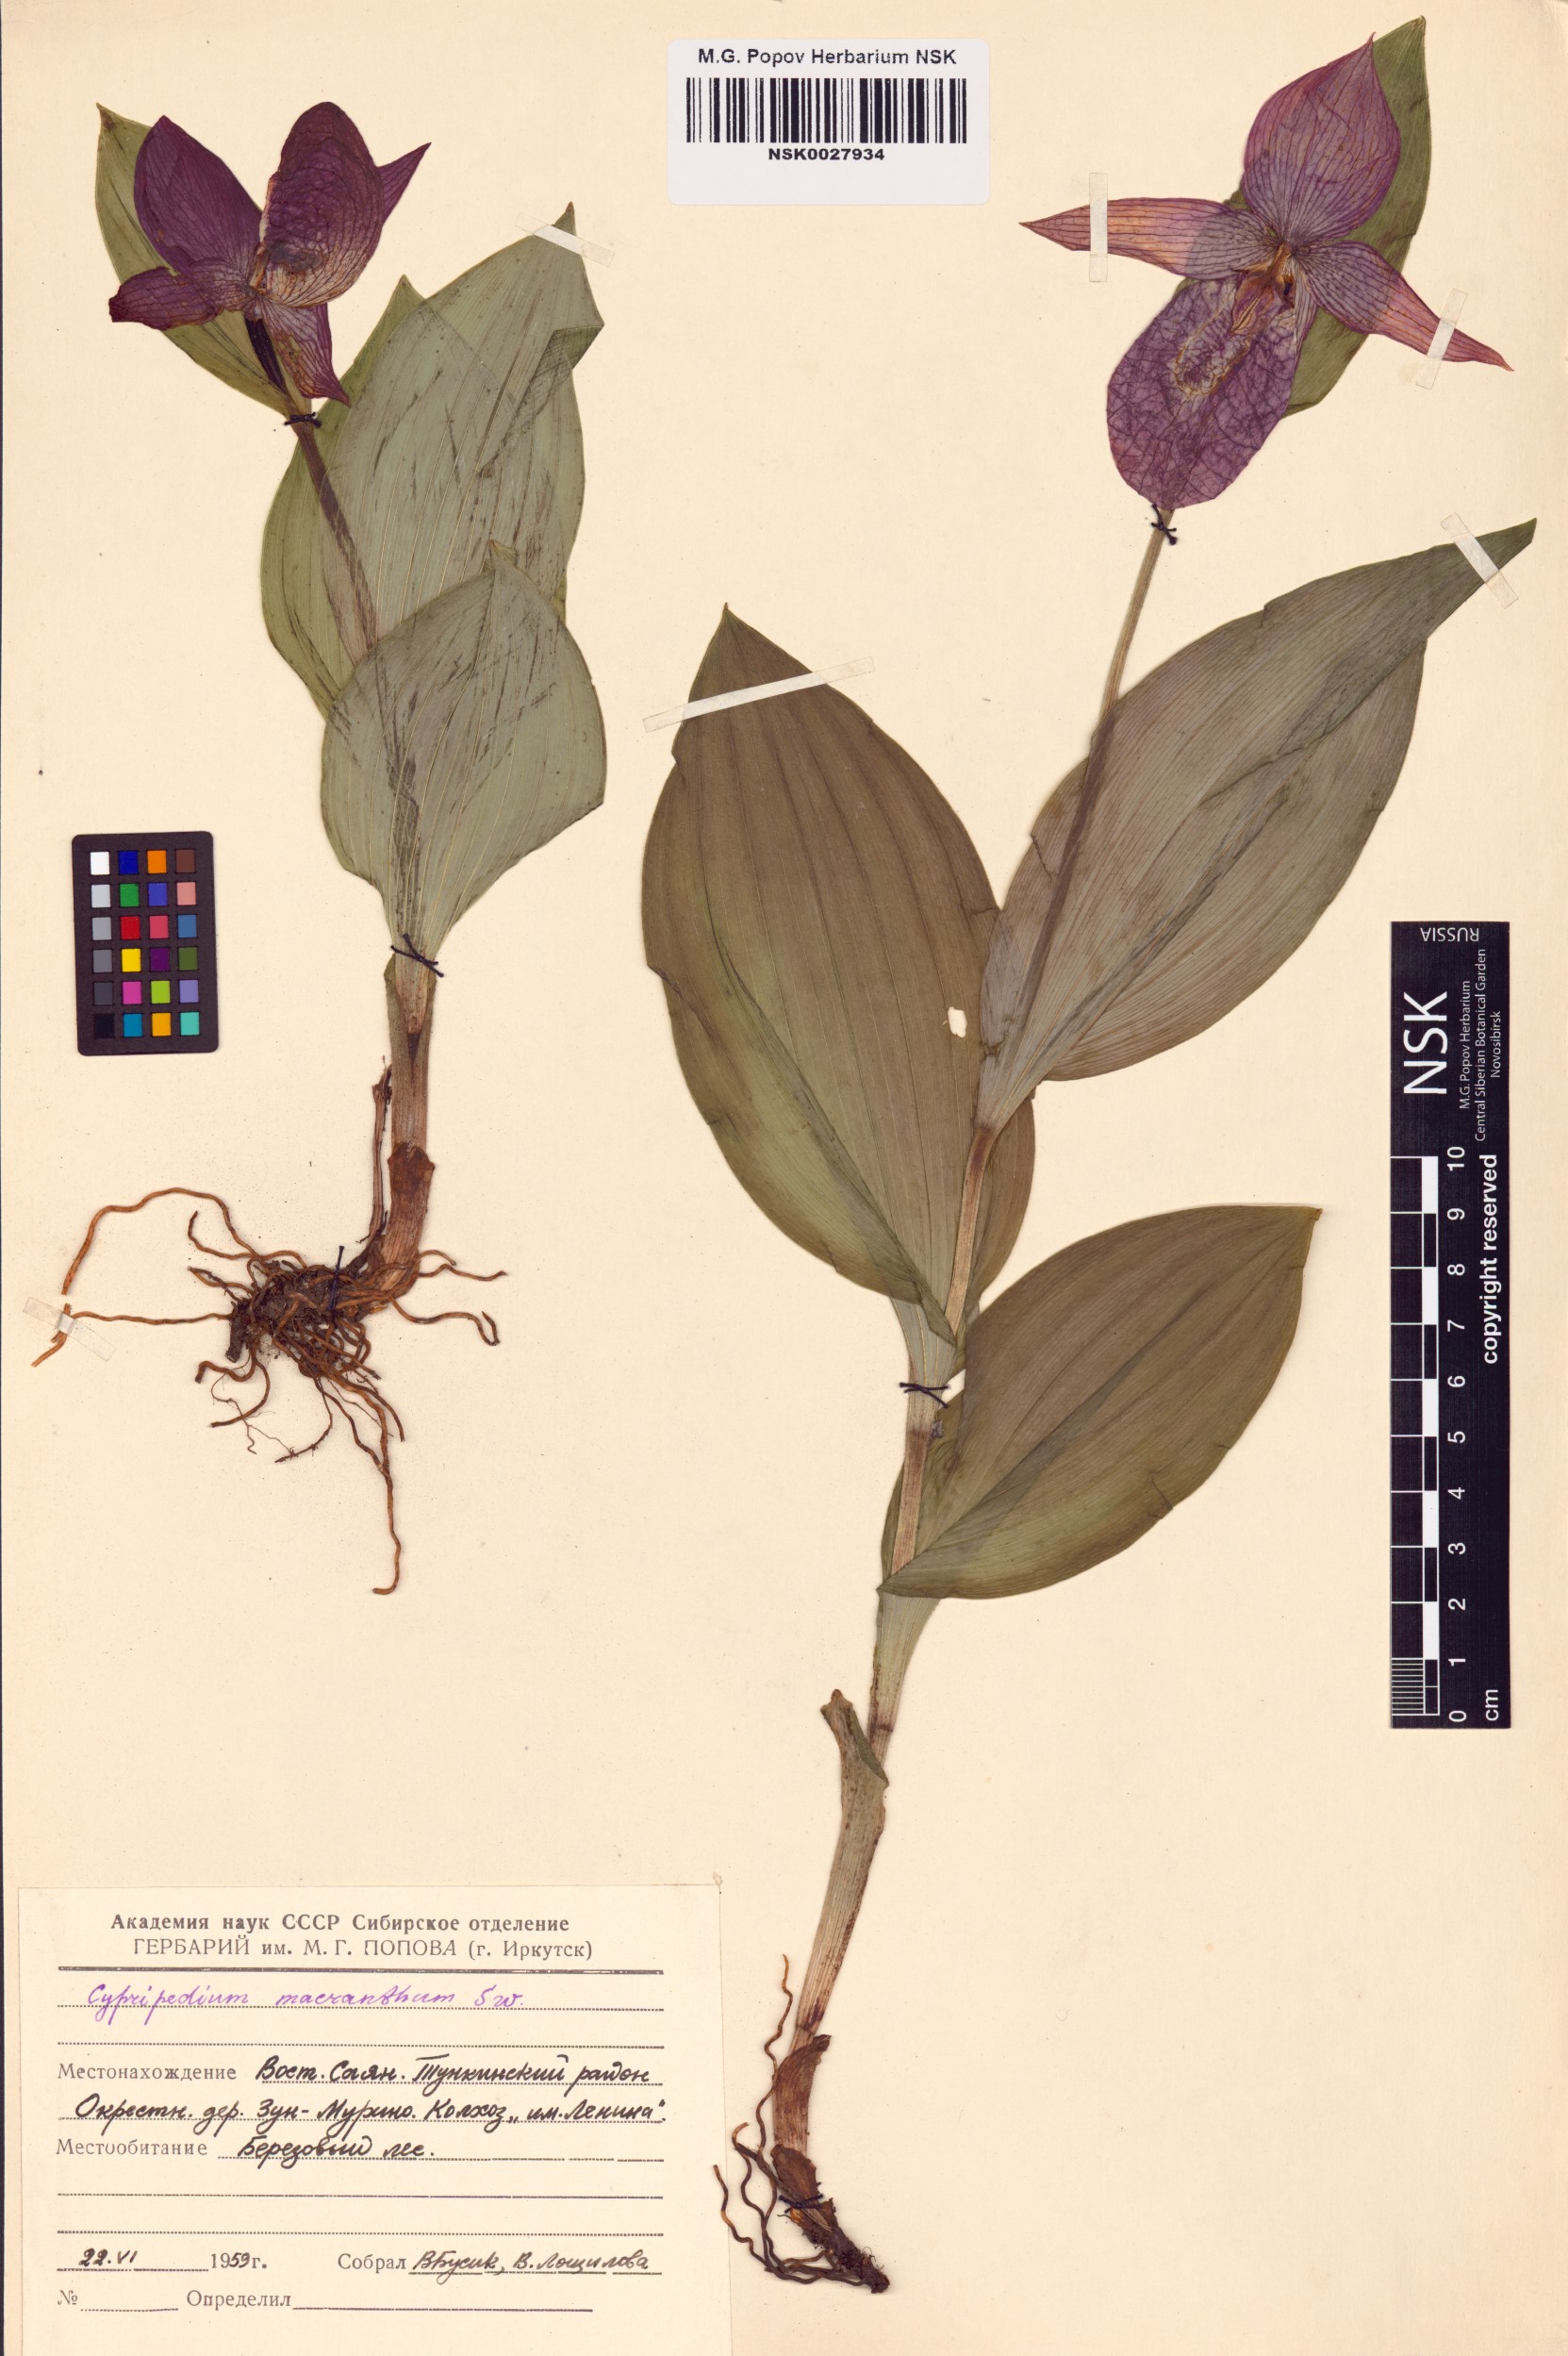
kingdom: Plantae
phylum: Tracheophyta
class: Liliopsida
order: Asparagales
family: Orchidaceae
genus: Cypripedium
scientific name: Cypripedium macranthos
